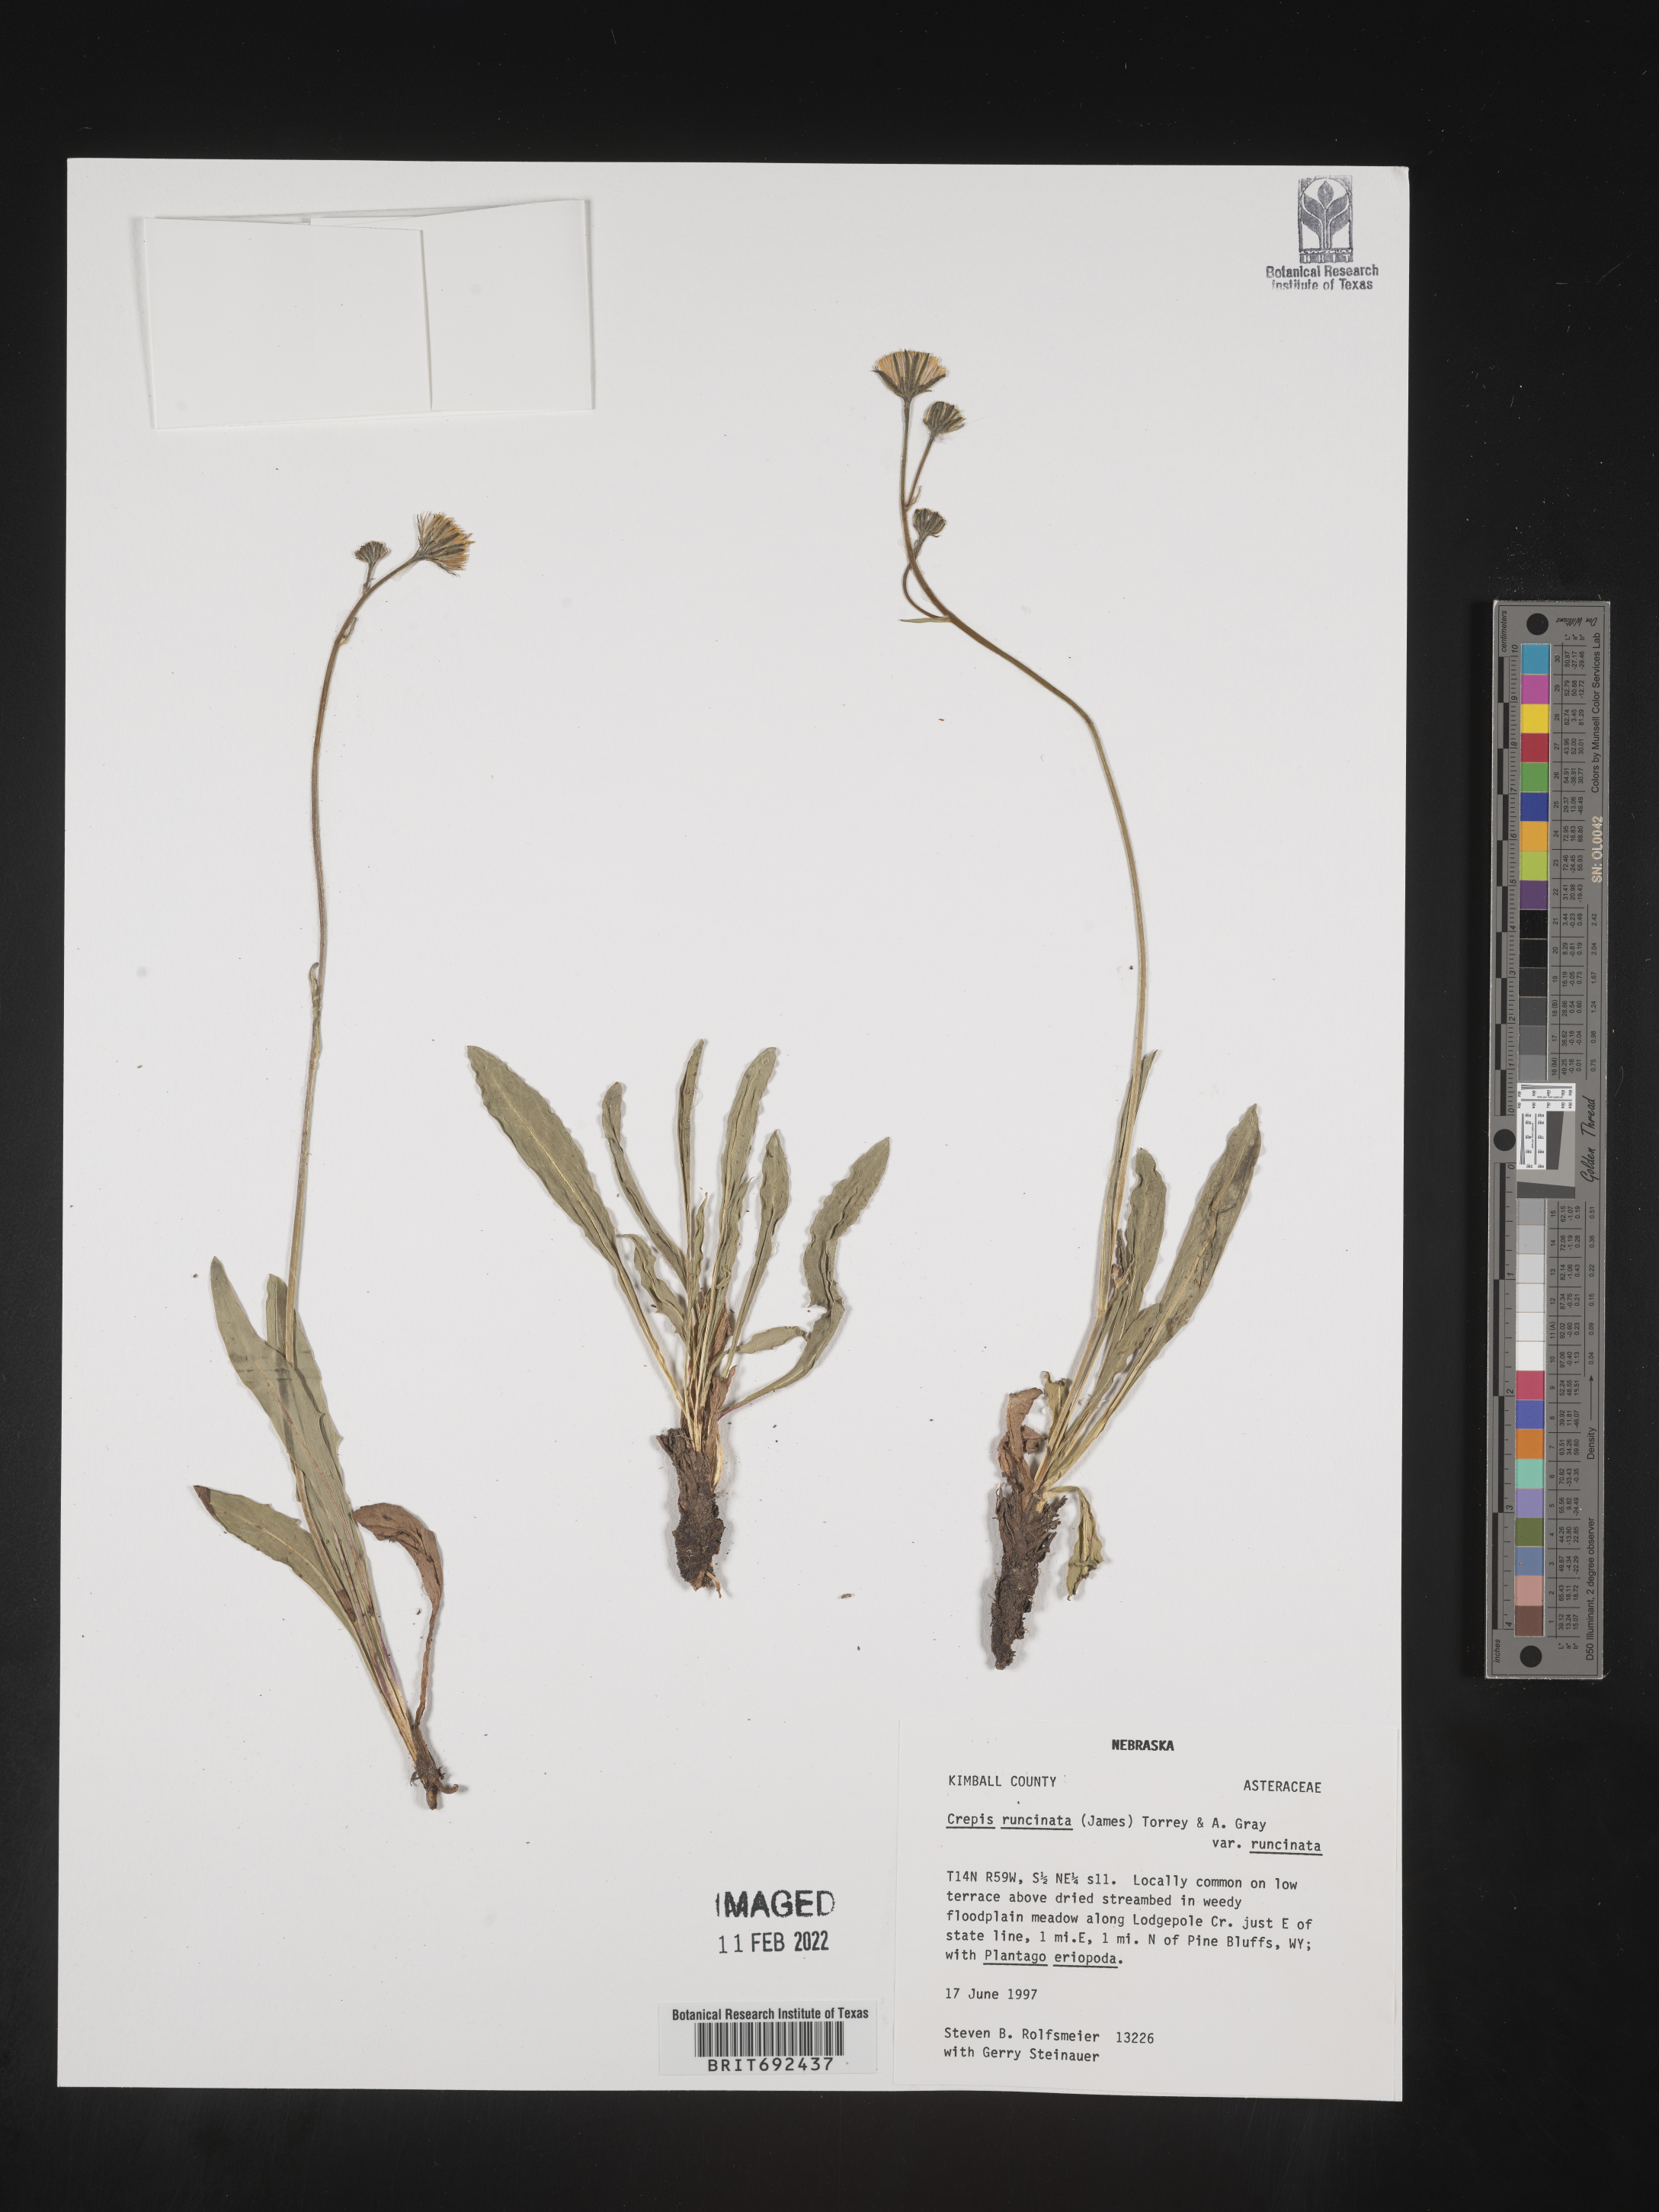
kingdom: Plantae
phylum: Tracheophyta
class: Magnoliopsida
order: Asterales
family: Asteraceae
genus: Crepis
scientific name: Crepis
